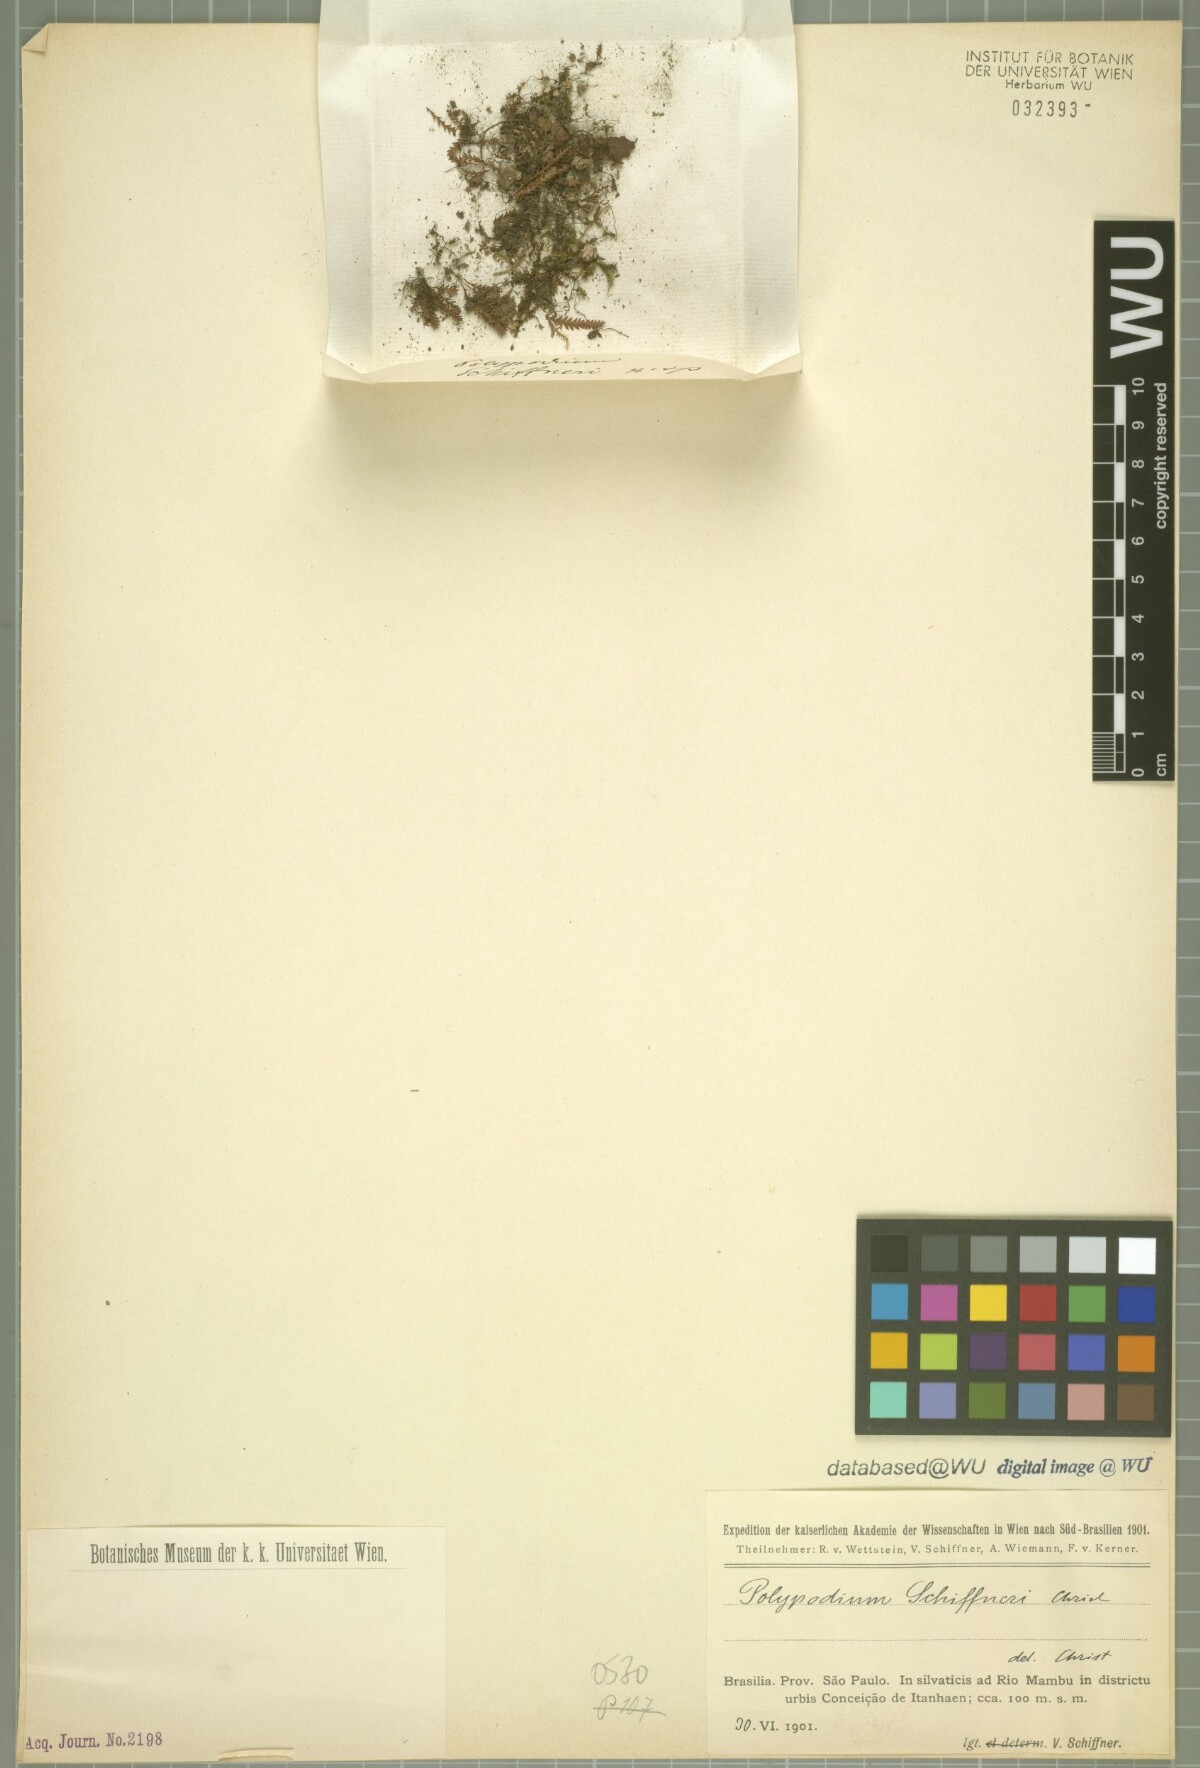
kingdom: Plantae
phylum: Tracheophyta
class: Polypodiopsida
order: Polypodiales
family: Polypodiaceae
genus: Polypodium
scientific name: Polypodium schiffneri
